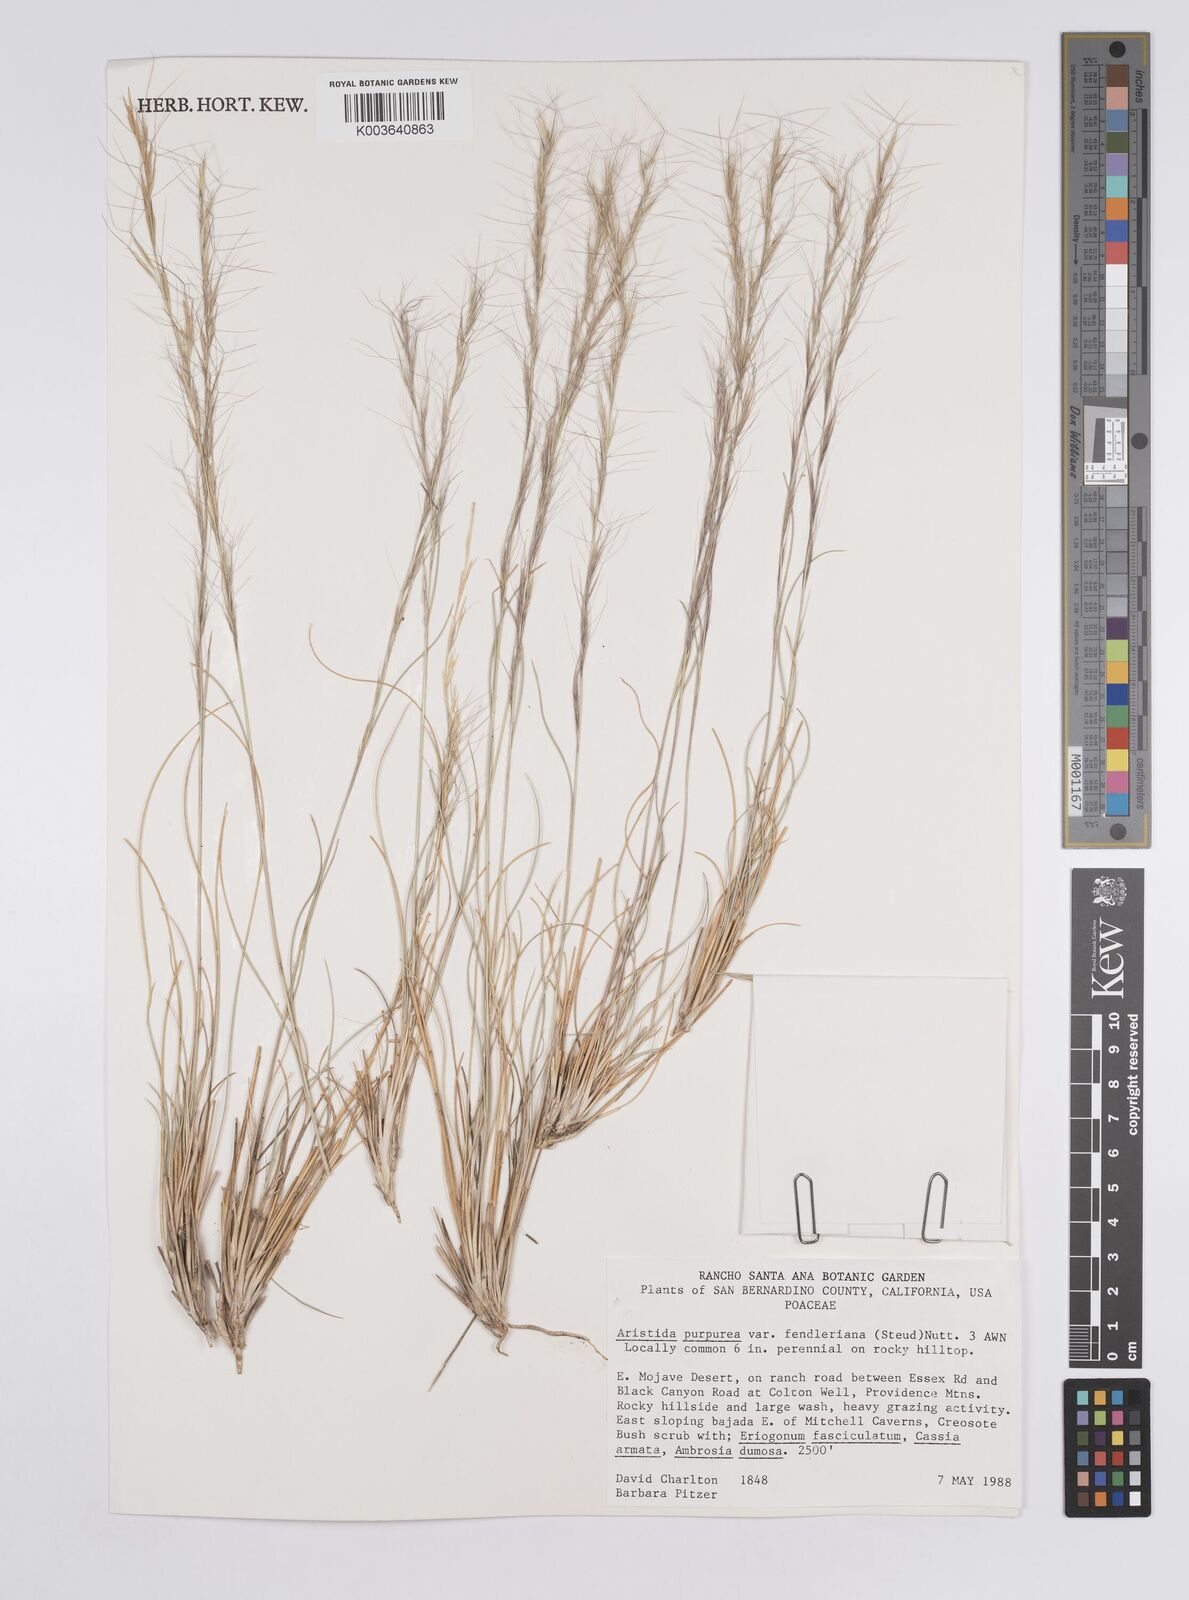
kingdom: Plantae
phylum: Tracheophyta
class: Liliopsida
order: Poales
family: Poaceae
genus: Aristida
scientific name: Aristida purpurea
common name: Purple threeawn
